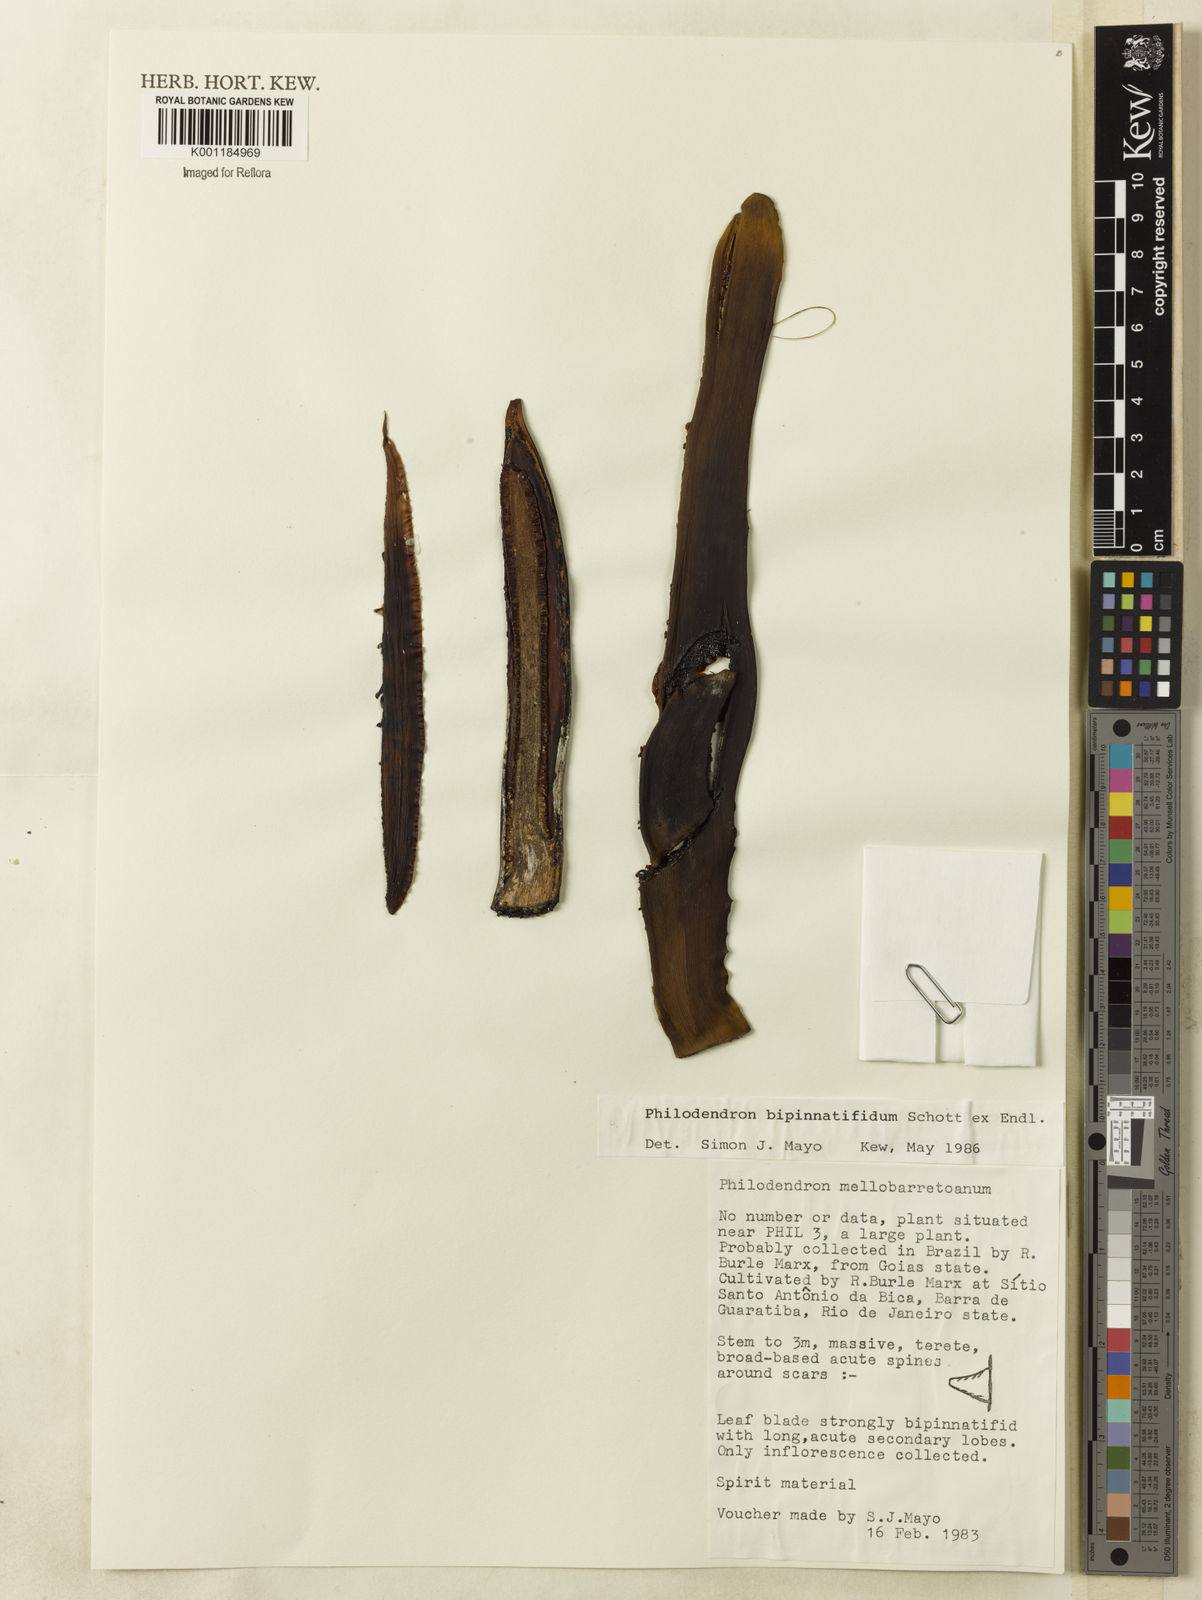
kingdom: Plantae
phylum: Tracheophyta
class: Liliopsida
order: Alismatales
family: Araceae
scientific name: Araceae
